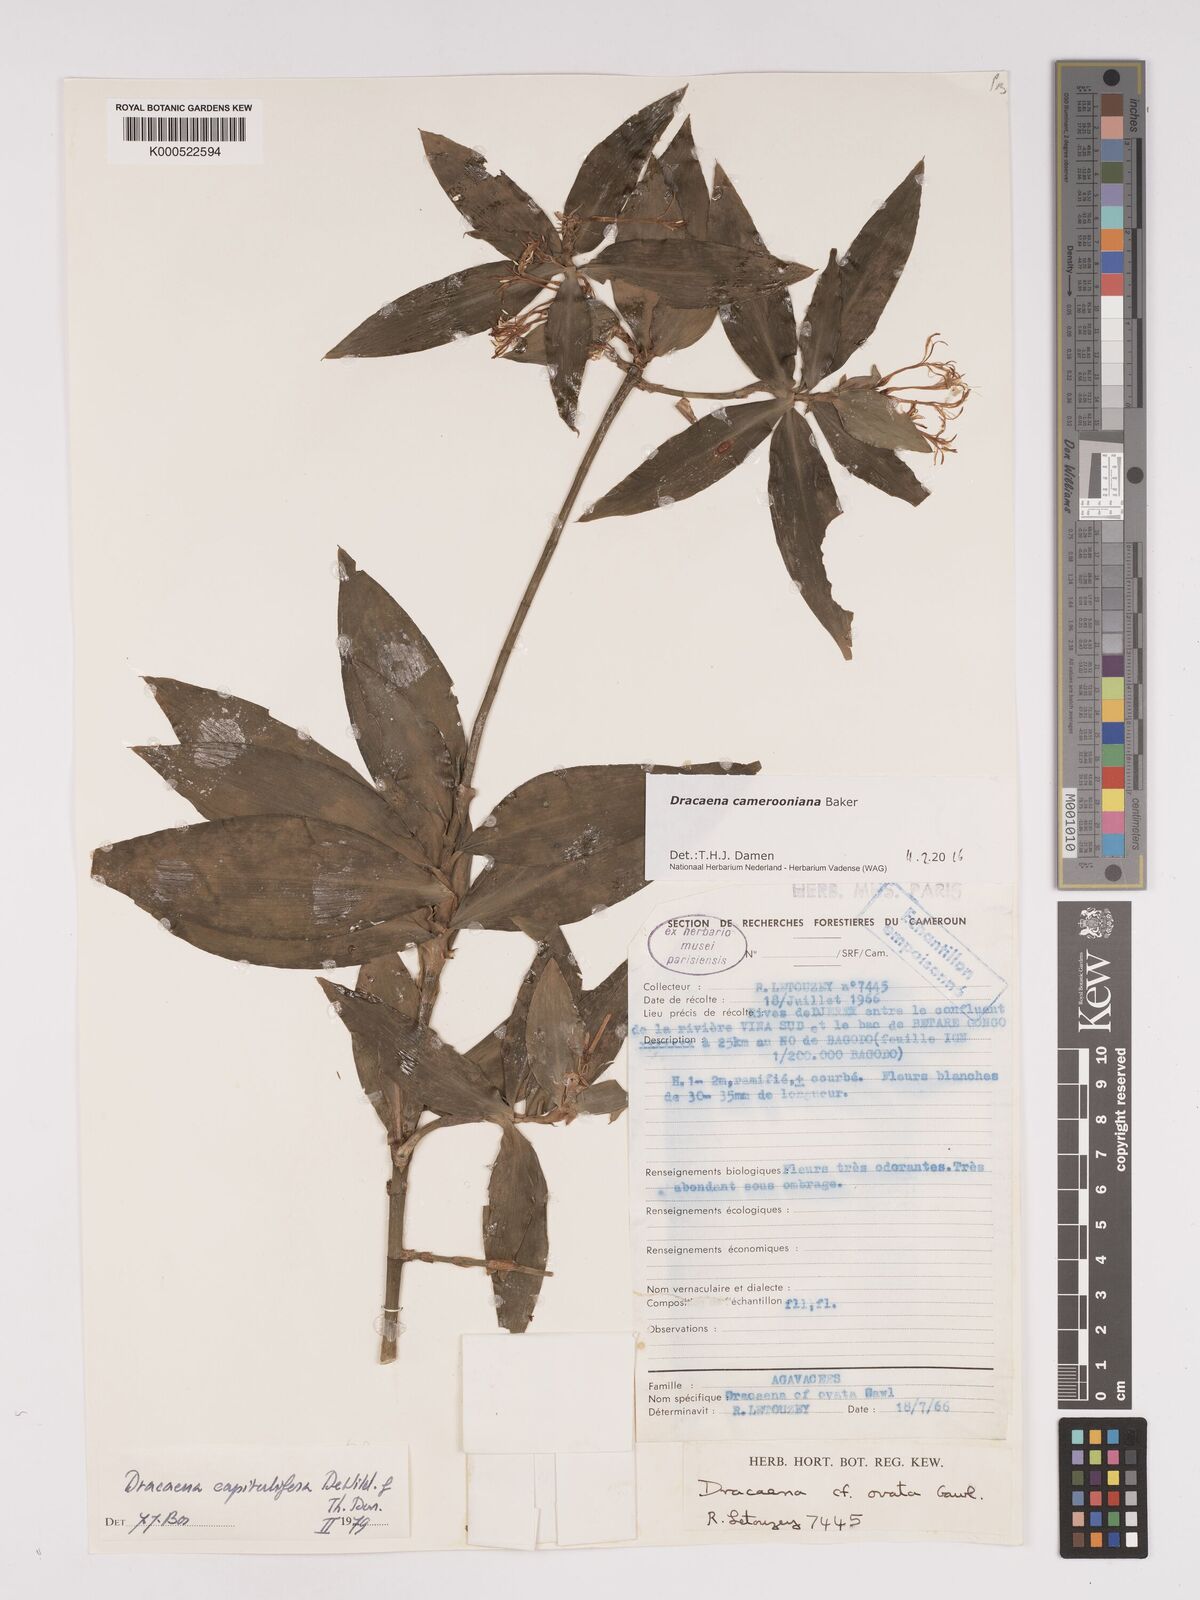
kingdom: Plantae
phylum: Tracheophyta
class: Liliopsida
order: Asparagales
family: Asparagaceae
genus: Dracaena
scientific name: Dracaena camerooniana
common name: Dragon tree
